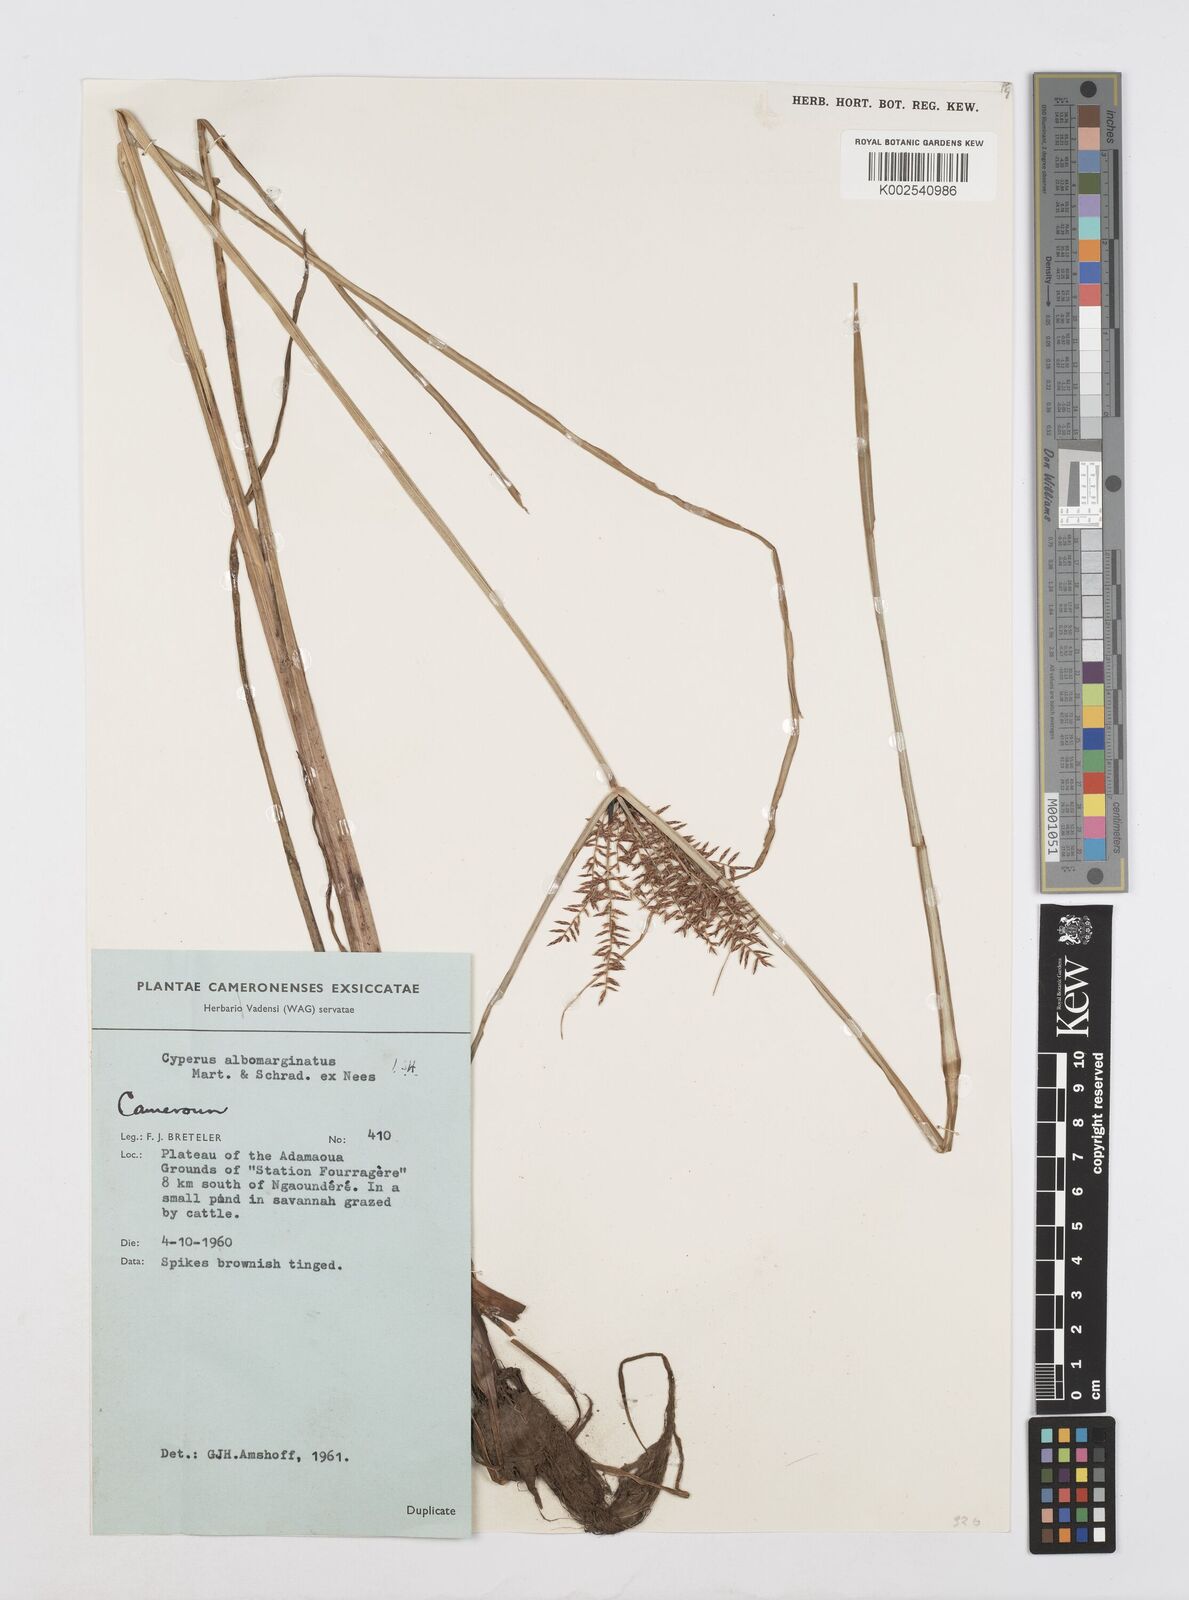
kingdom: Plantae
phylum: Tracheophyta
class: Liliopsida
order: Poales
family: Cyperaceae
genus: Cyperus
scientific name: Cyperus macrostachyos
